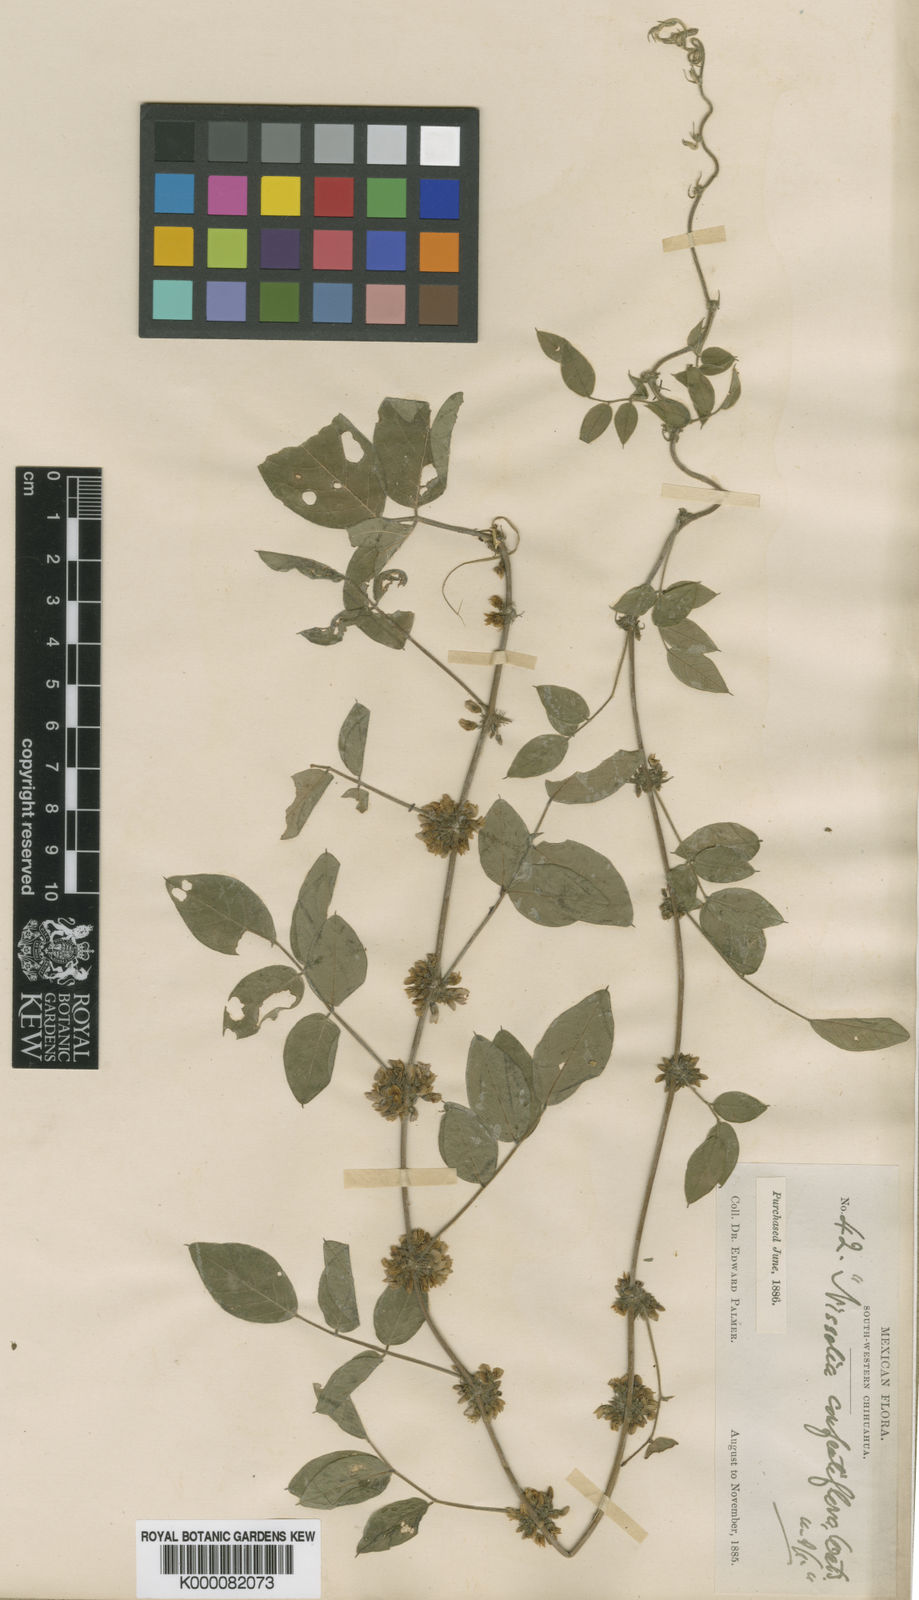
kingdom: Plantae
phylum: Tracheophyta
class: Magnoliopsida
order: Fabales
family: Fabaceae
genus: Nissolia
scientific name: Nissolia microptera
